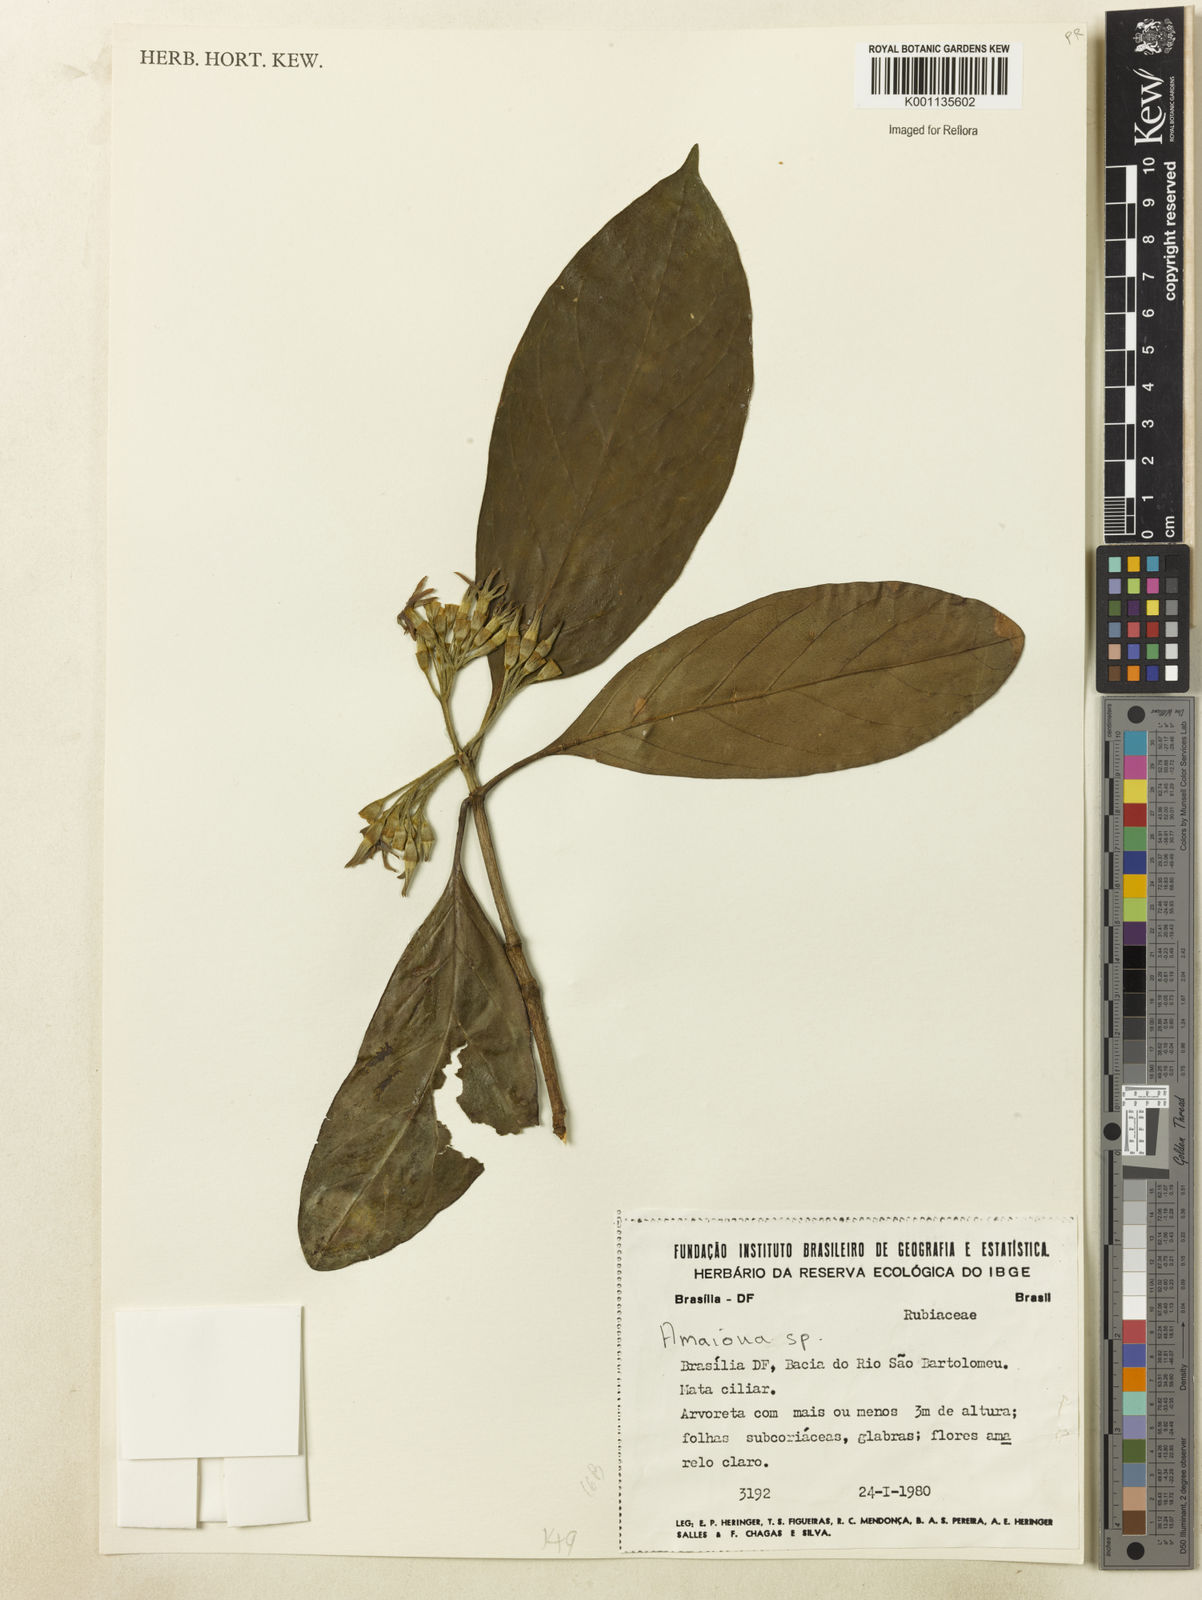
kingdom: Plantae
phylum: Tracheophyta
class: Magnoliopsida
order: Gentianales
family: Rubiaceae
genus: Amaioua
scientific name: Amaioua intermedia
